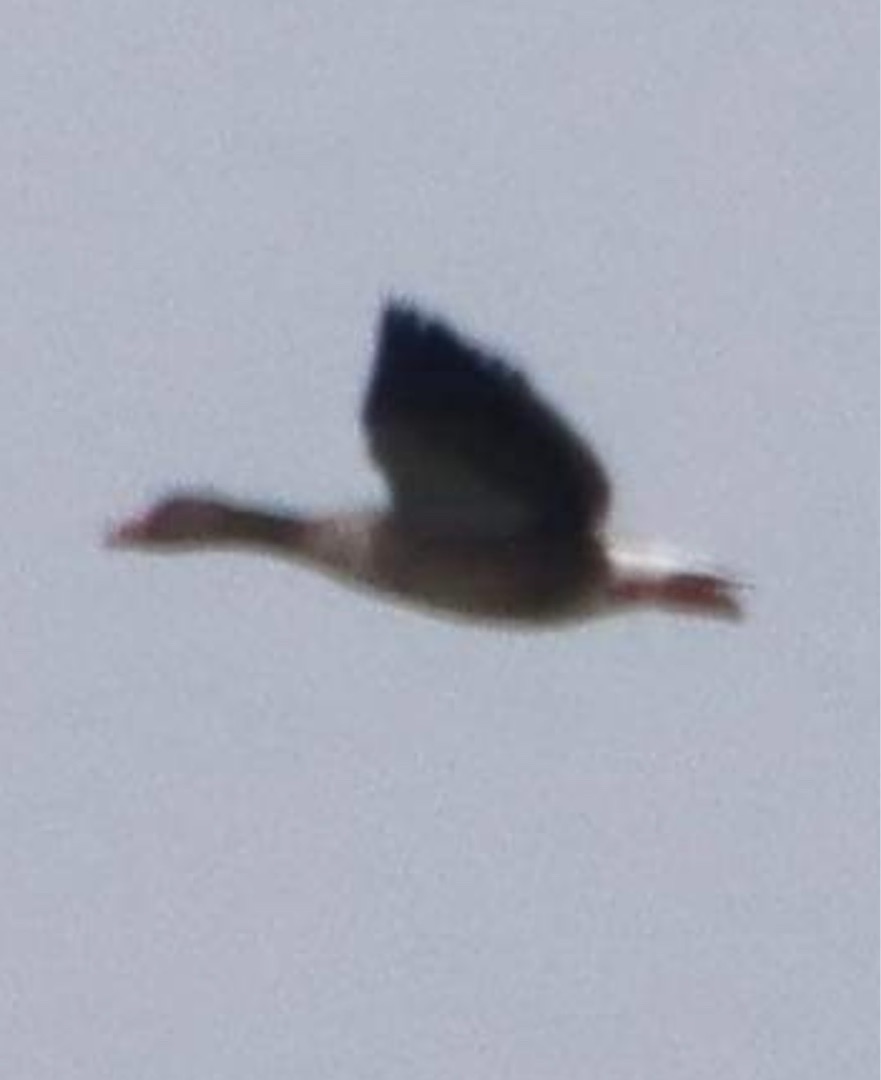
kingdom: Animalia
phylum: Chordata
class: Aves
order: Anseriformes
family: Anatidae
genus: Anser
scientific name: Anser anser
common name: Grågås
